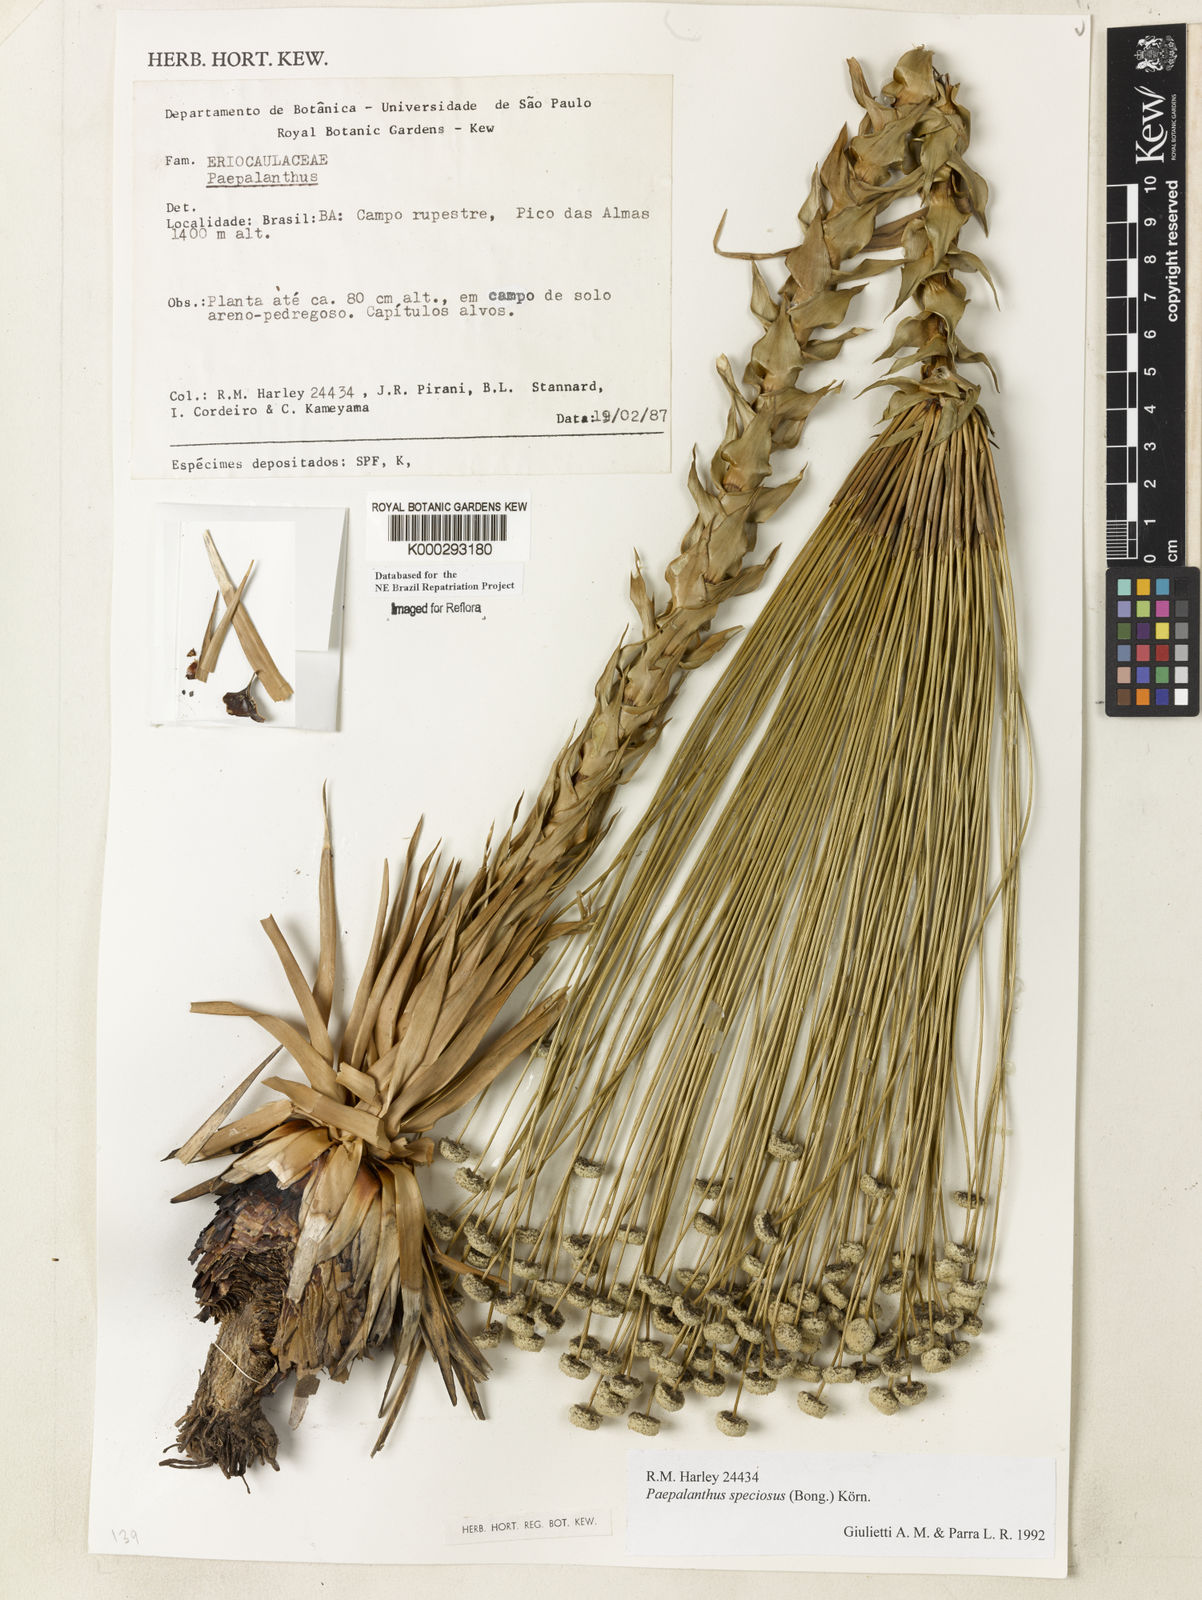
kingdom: Plantae
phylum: Tracheophyta
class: Liliopsida
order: Poales
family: Eriocaulaceae
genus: Paepalanthus
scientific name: Paepalanthus
